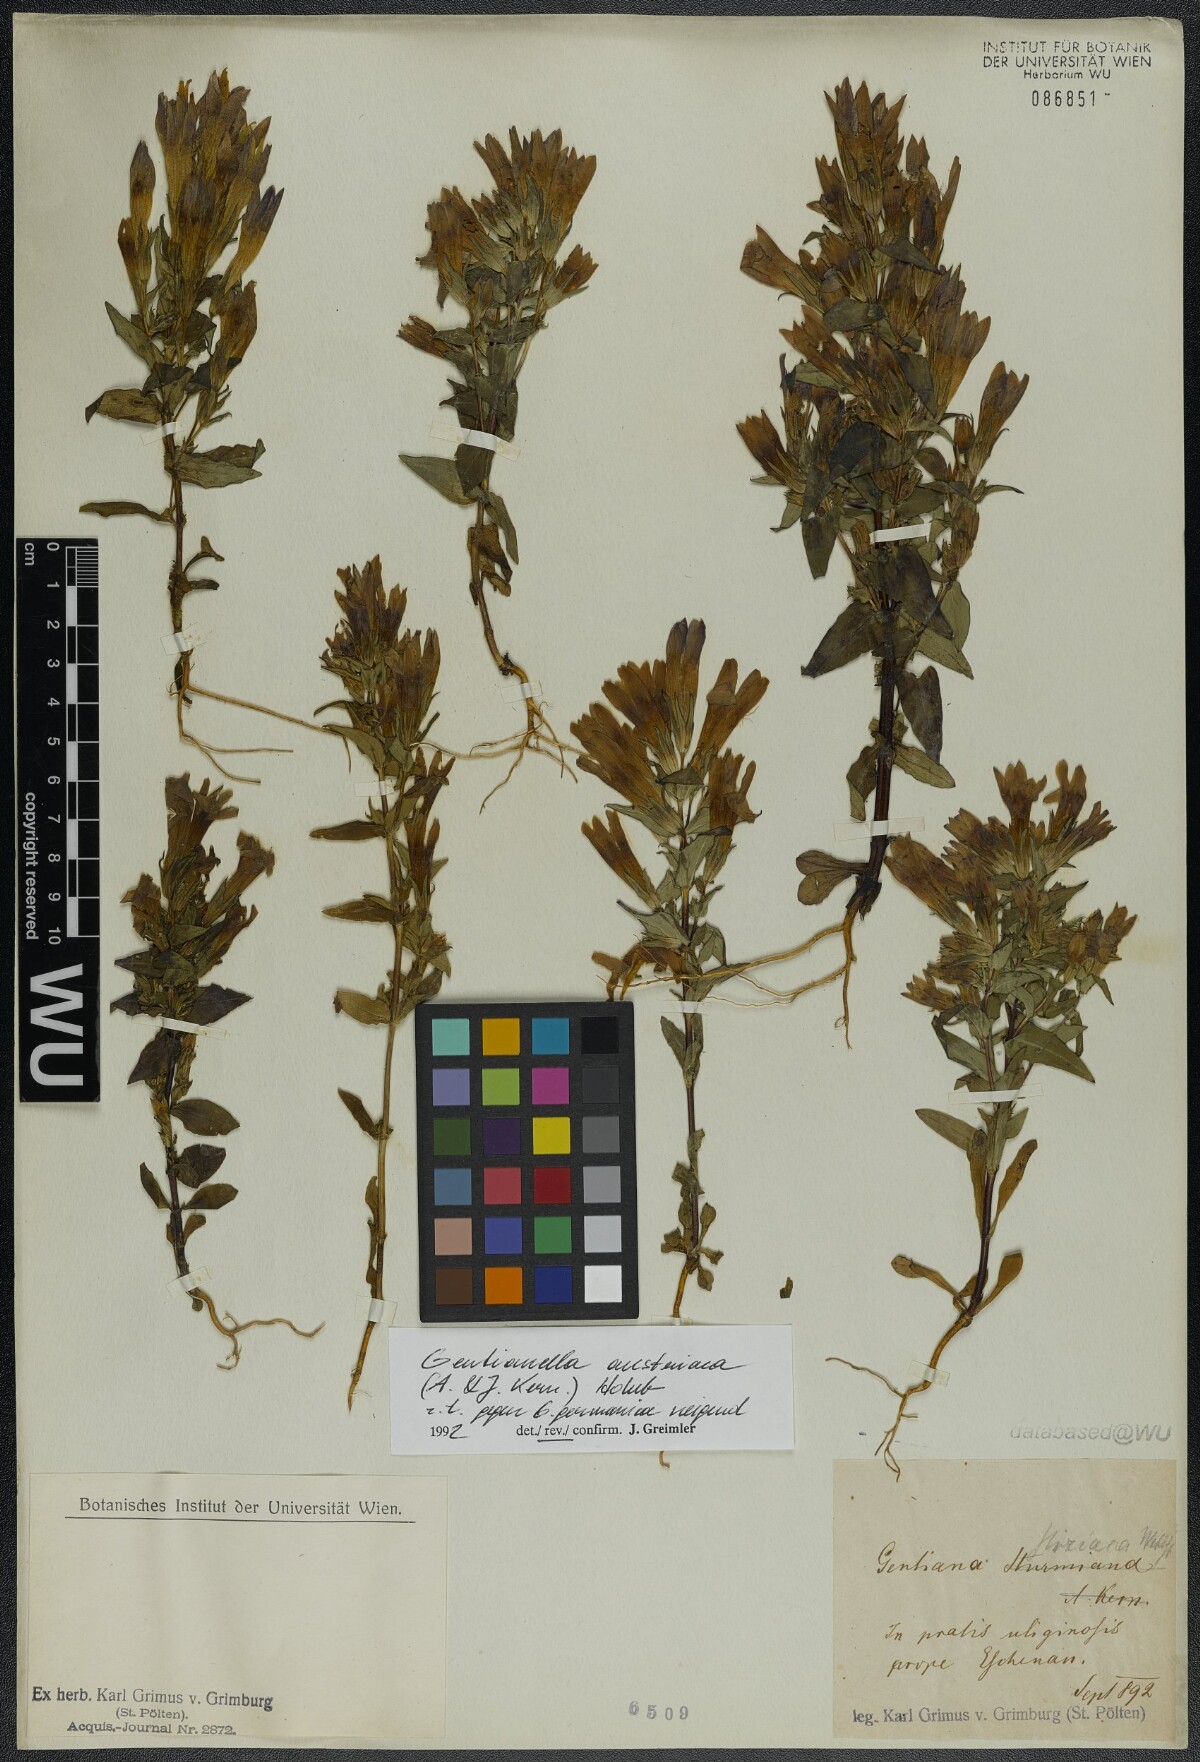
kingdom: Plantae
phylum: Tracheophyta
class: Magnoliopsida
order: Gentianales
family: Gentianaceae
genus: Gentianella
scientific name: Gentianella germanica
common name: Chiltern-gentian
